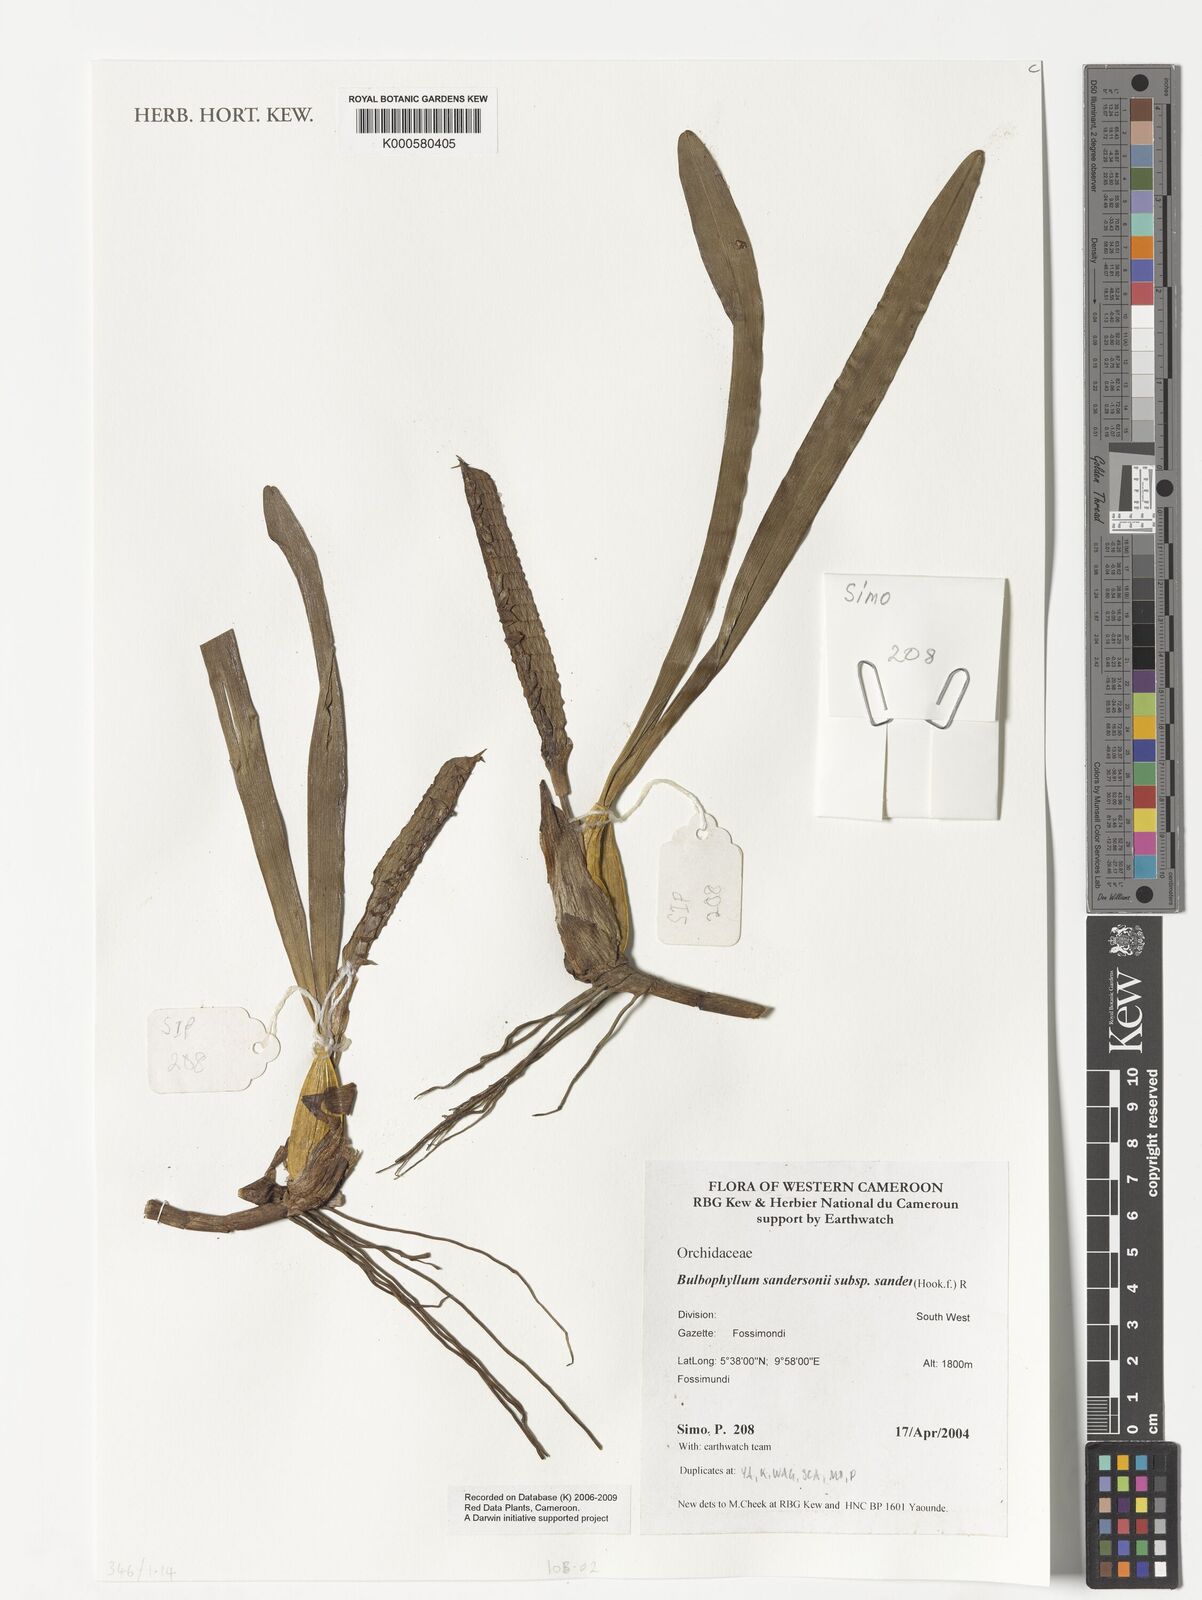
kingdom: Plantae
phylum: Tracheophyta
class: Liliopsida
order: Asparagales
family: Orchidaceae
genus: Bulbophyllum
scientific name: Bulbophyllum sandersonii
